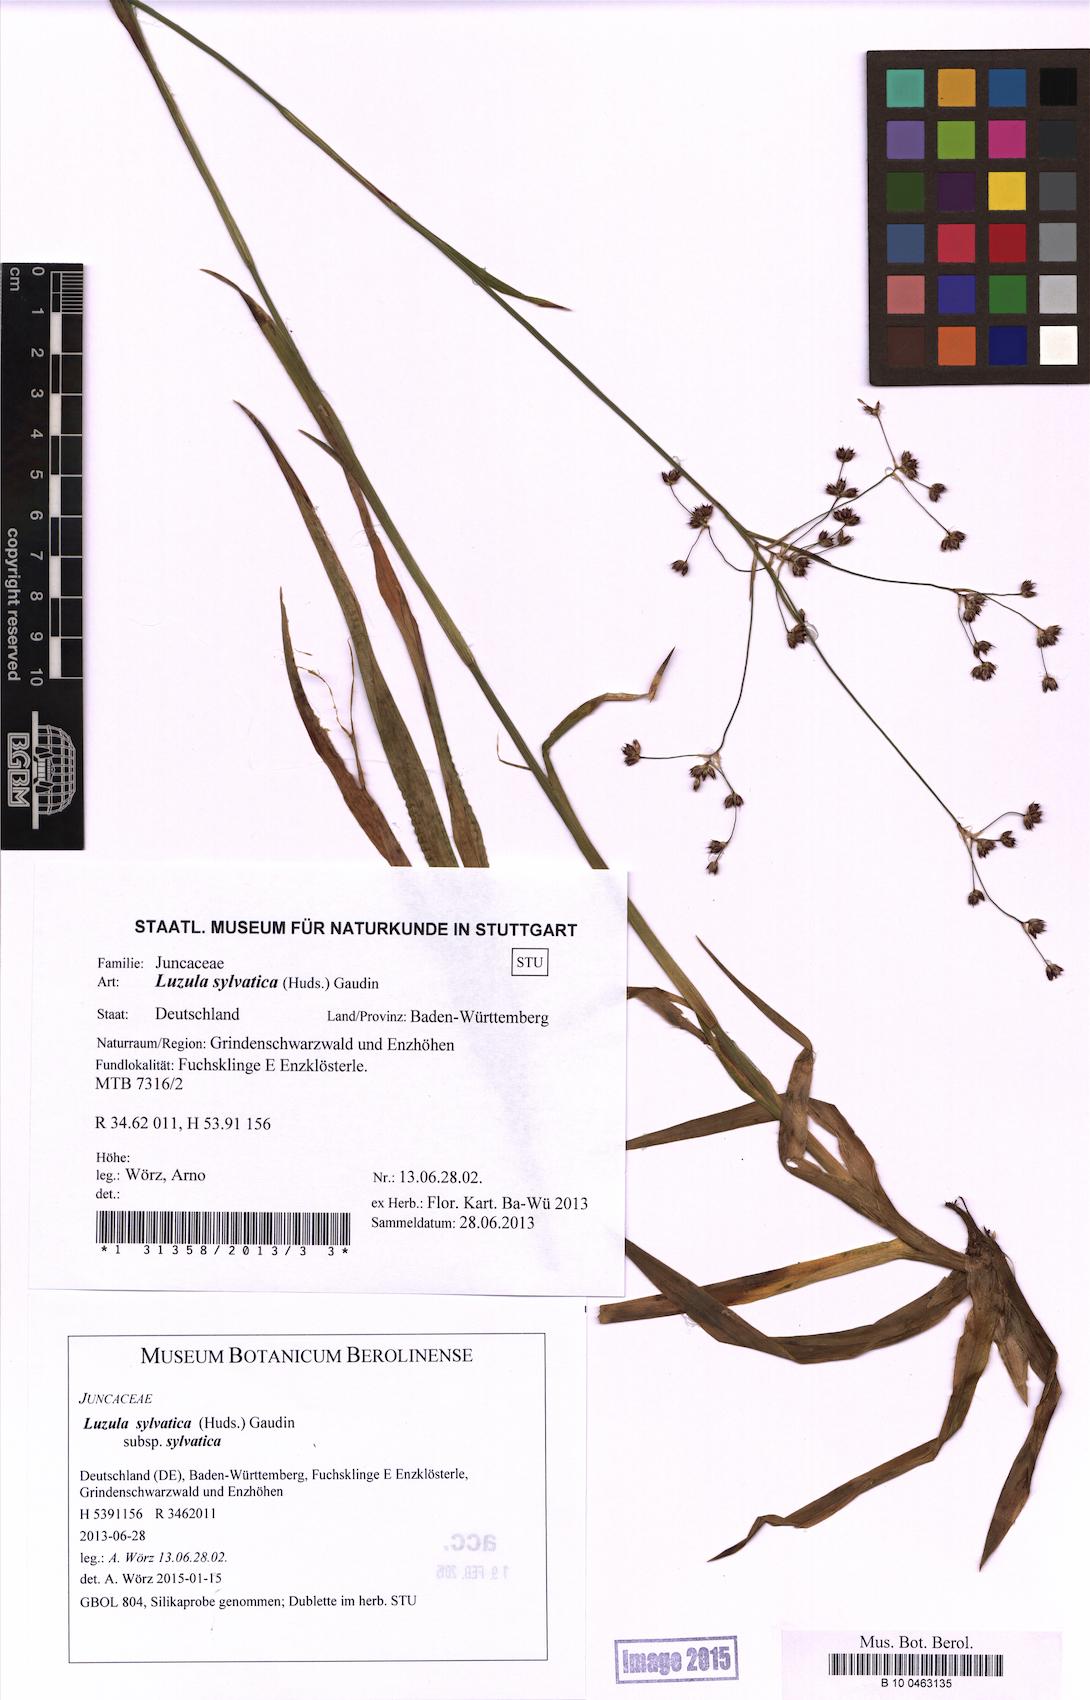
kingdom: Plantae
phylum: Tracheophyta
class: Liliopsida
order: Poales
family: Juncaceae
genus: Luzula
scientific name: Luzula sylvatica
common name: Great wood-rush
